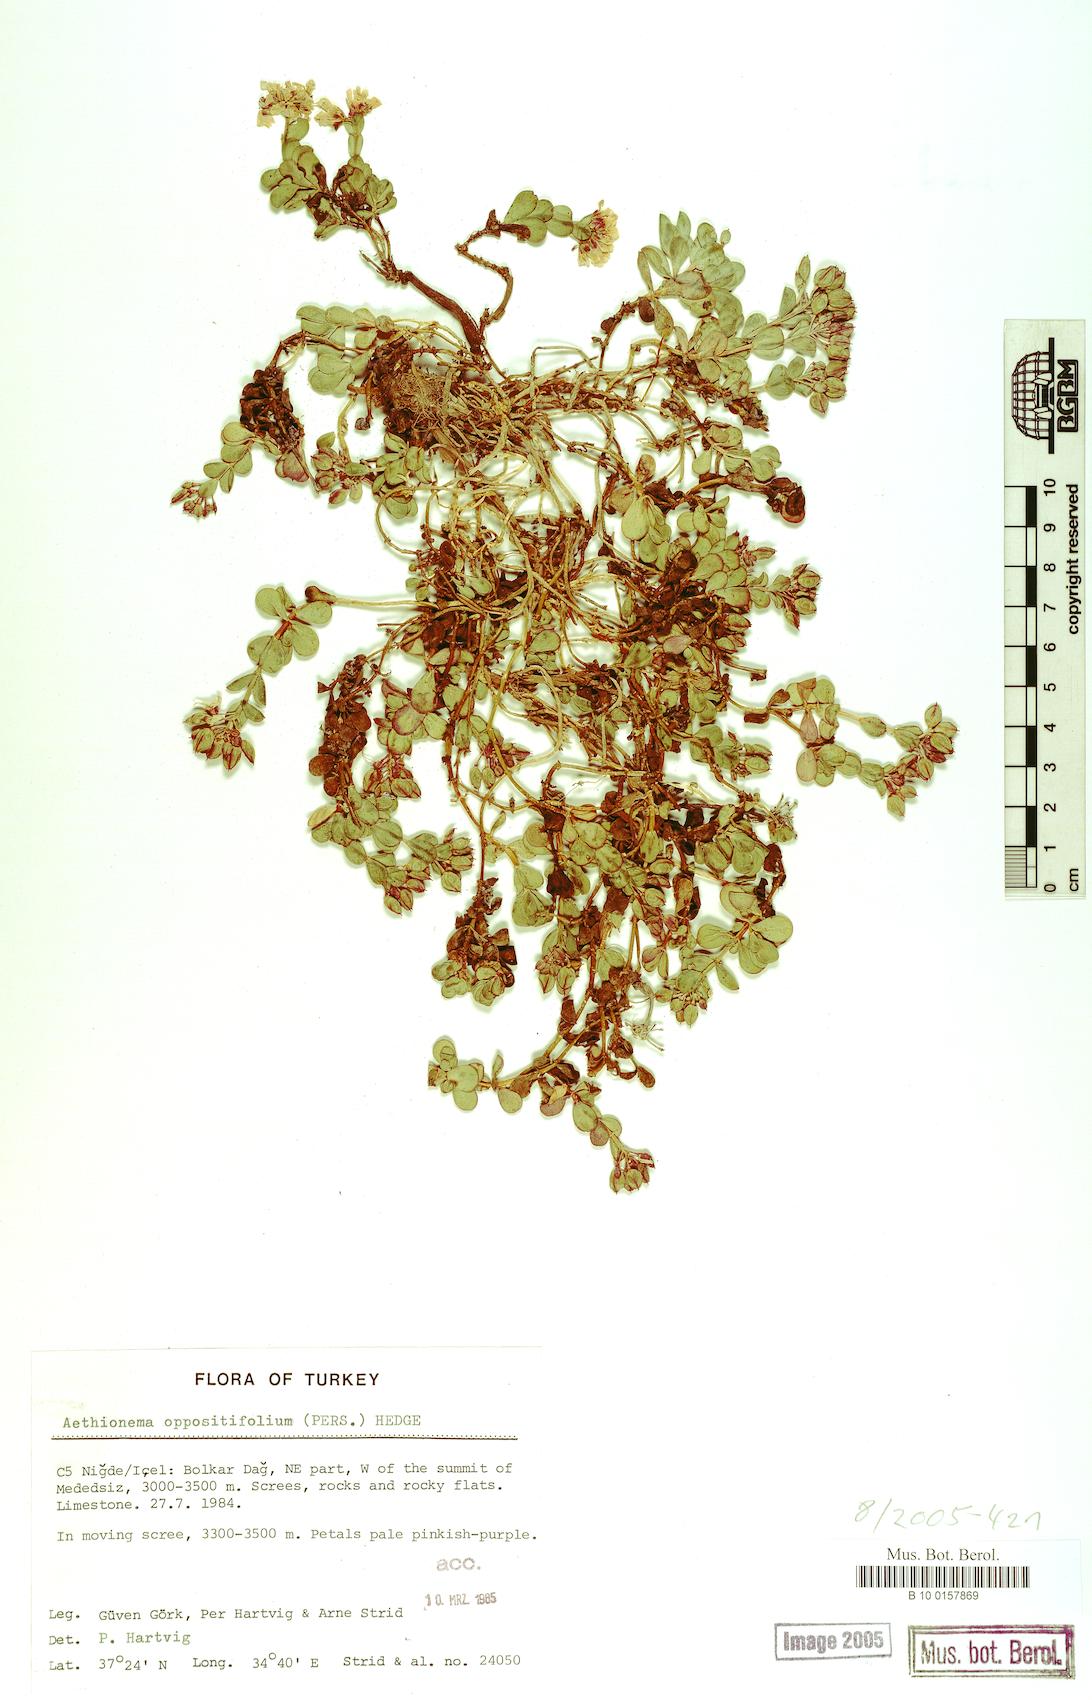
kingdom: Plantae
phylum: Tracheophyta
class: Magnoliopsida
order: Brassicales
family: Brassicaceae
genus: Noccaea
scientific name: Noccaea oppositifolia
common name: Twin-leaf stone-cress
